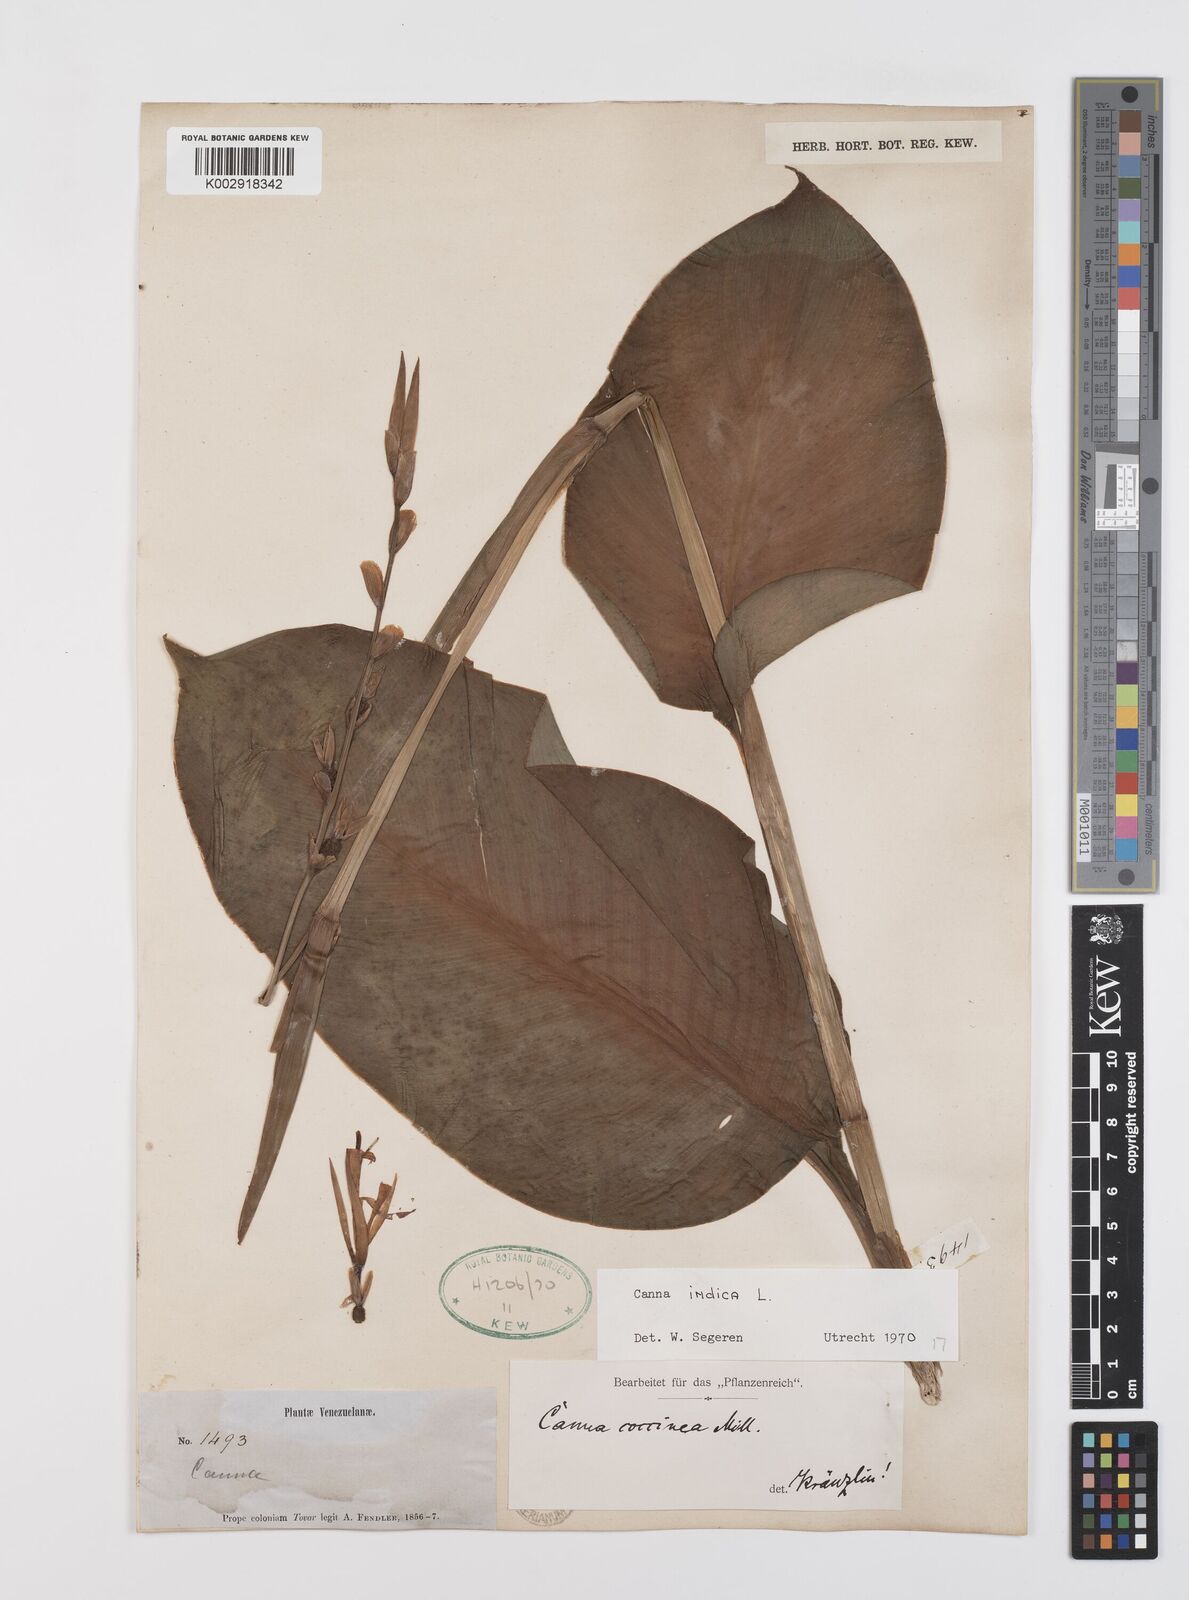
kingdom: Plantae
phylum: Tracheophyta
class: Liliopsida
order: Zingiberales
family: Cannaceae
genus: Canna
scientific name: Canna indica
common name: Indian shot
